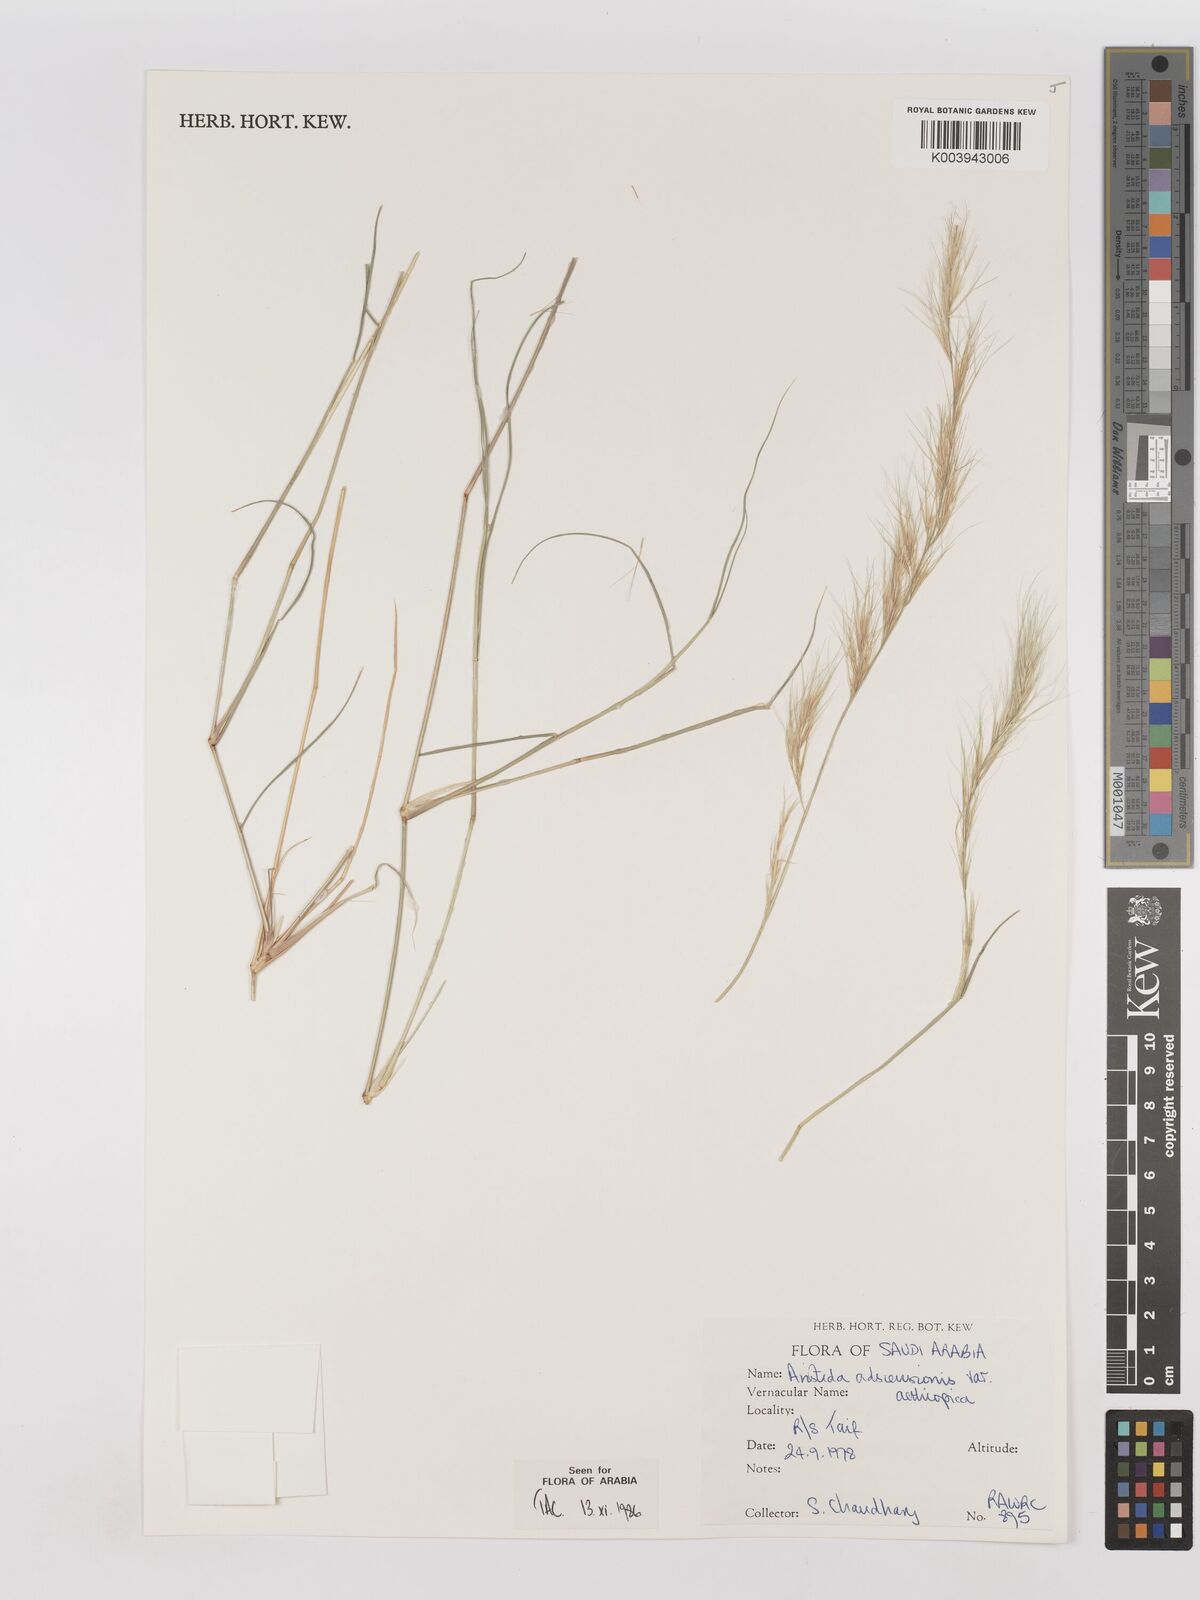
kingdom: Plantae
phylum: Tracheophyta
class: Liliopsida
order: Poales
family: Poaceae
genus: Aristida
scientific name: Aristida adscensionis
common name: Sixweeks threeawn
